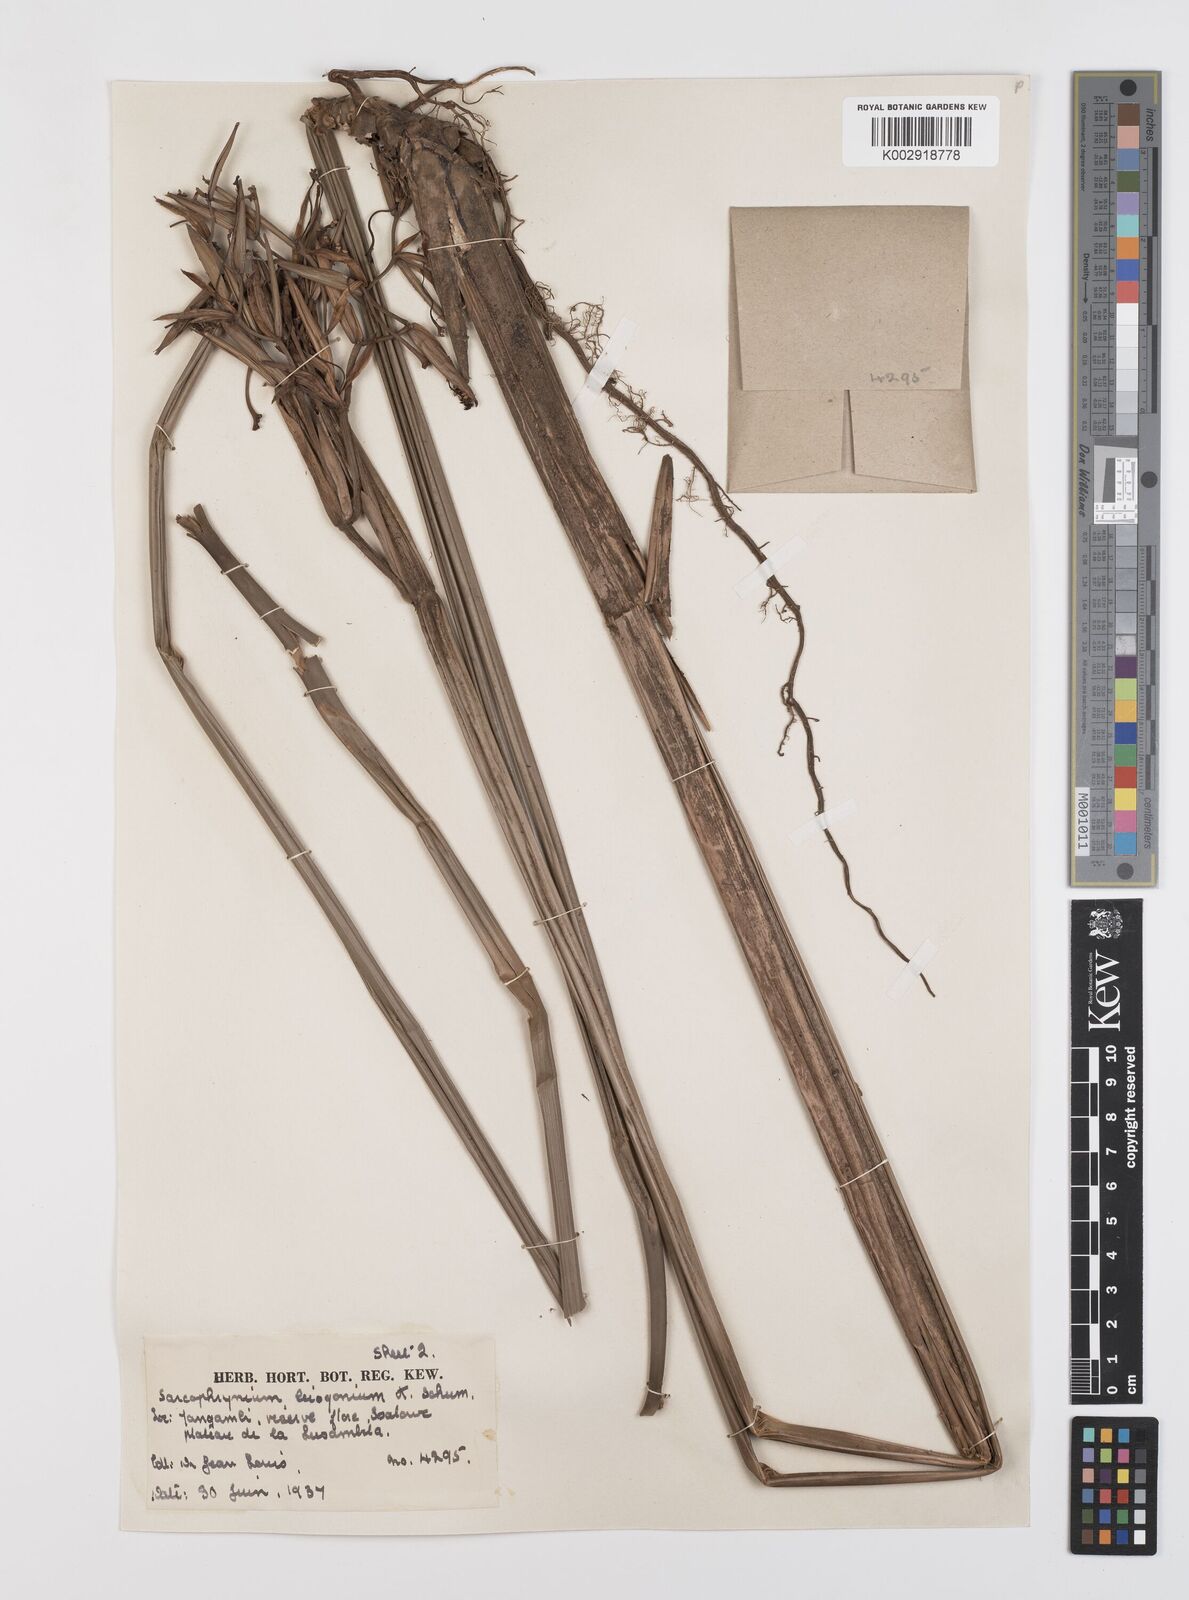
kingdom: Plantae
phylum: Tracheophyta
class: Liliopsida
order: Zingiberales
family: Marantaceae
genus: Sarcophrynium
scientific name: Sarcophrynium schweinfurthianum
